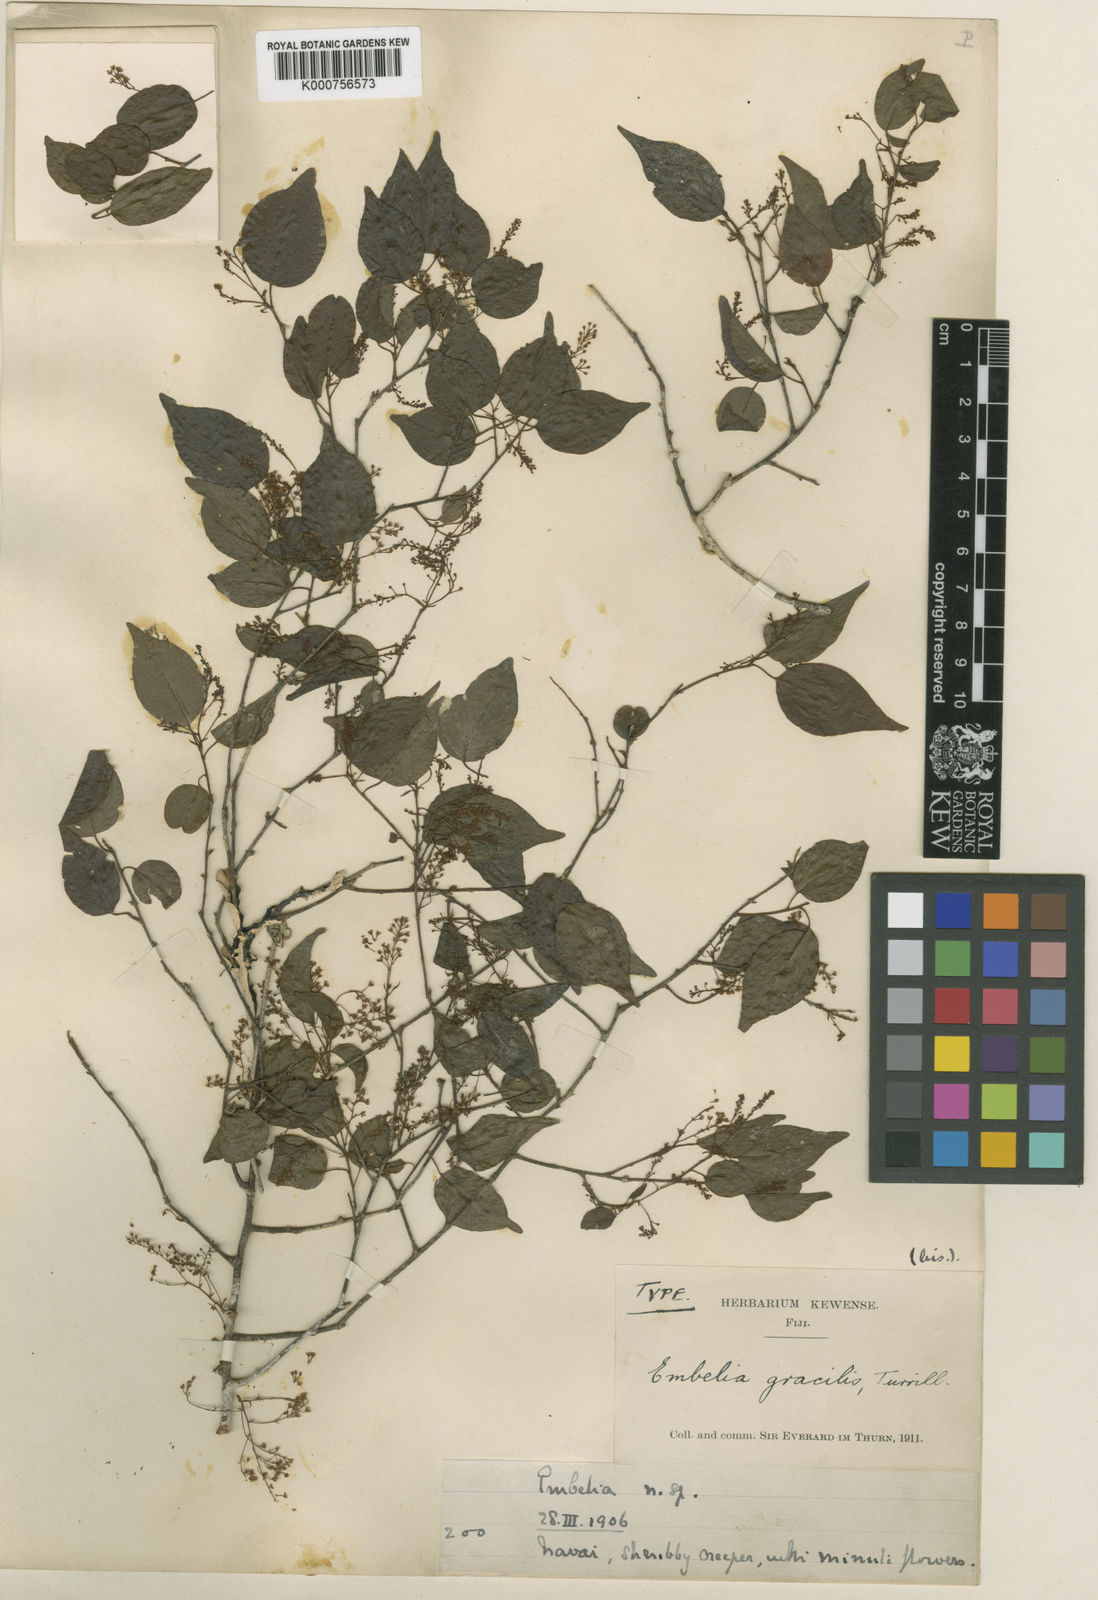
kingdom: Plantae
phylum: Tracheophyta
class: Magnoliopsida
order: Ericales
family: Primulaceae
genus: Embelia
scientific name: Embelia gracilis
